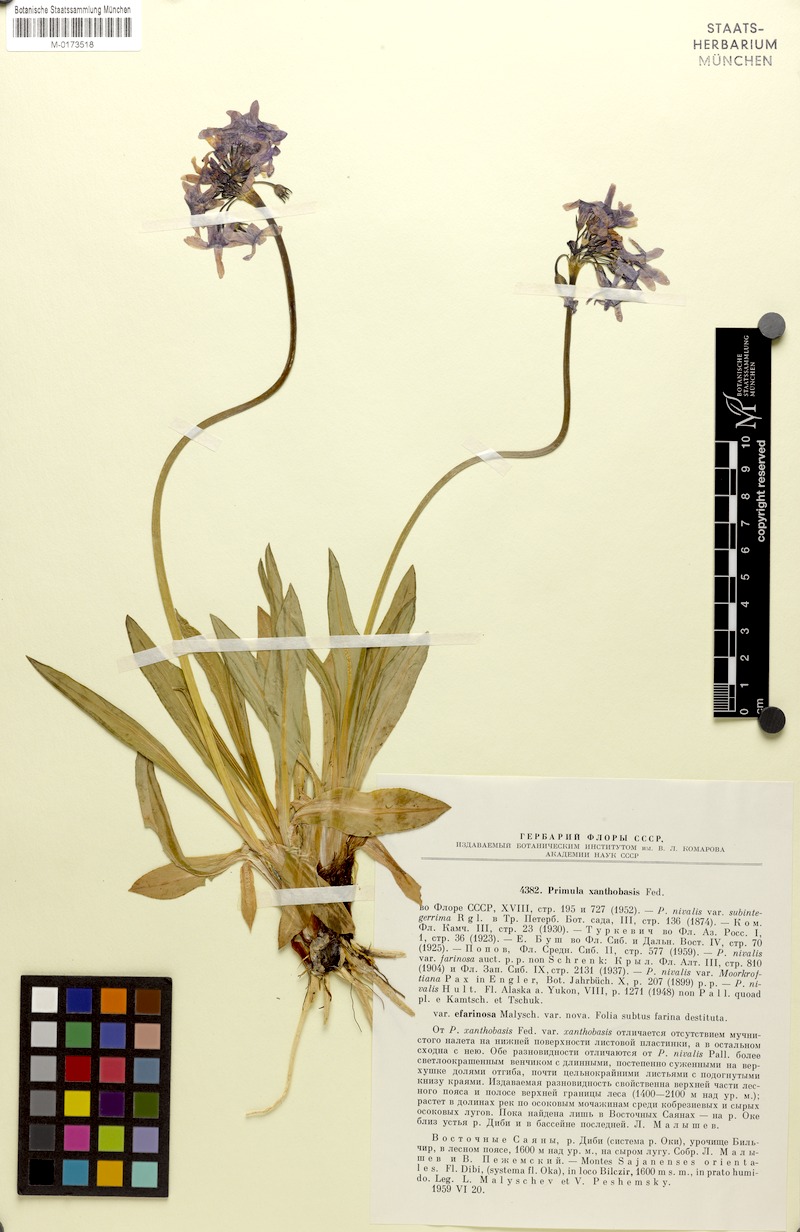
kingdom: Plantae
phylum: Tracheophyta
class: Magnoliopsida
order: Ericales
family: Primulaceae
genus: Primula
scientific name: Primula nivalis
